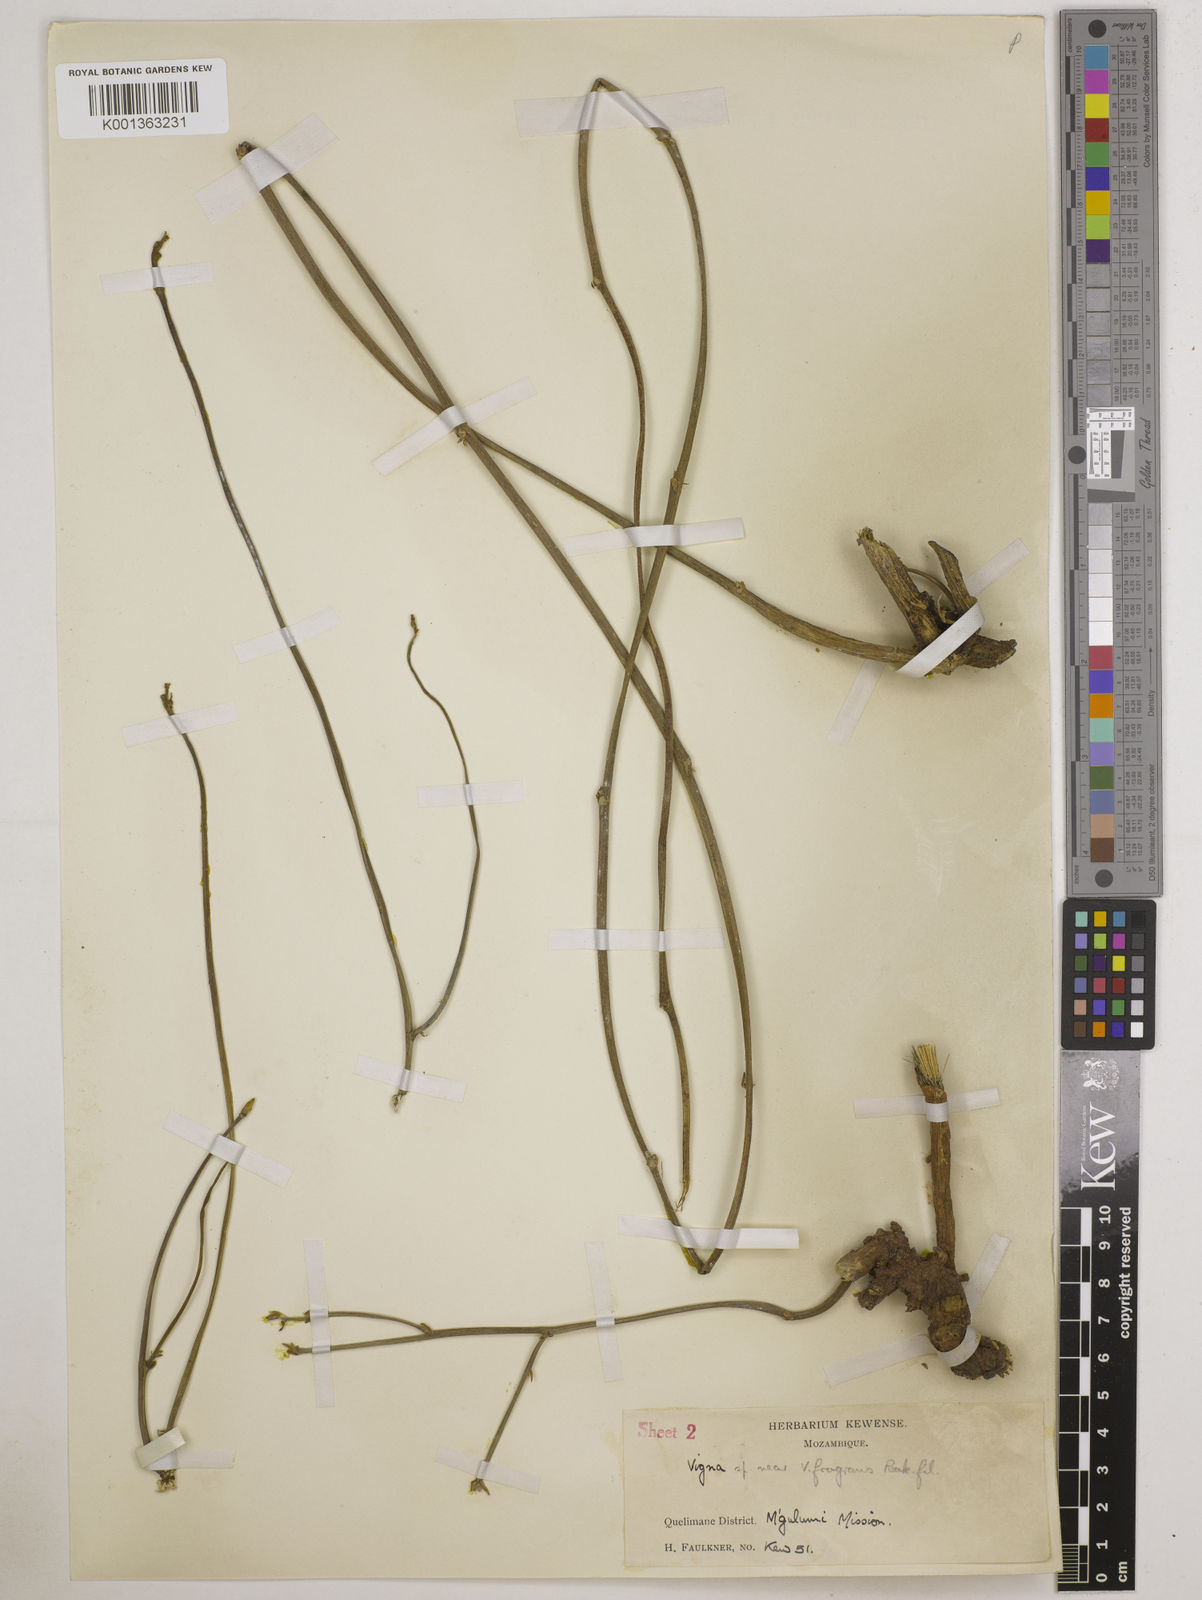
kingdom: Plantae
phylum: Tracheophyta
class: Magnoliopsida
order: Fabales
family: Fabaceae
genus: Vigna
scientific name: Vigna
